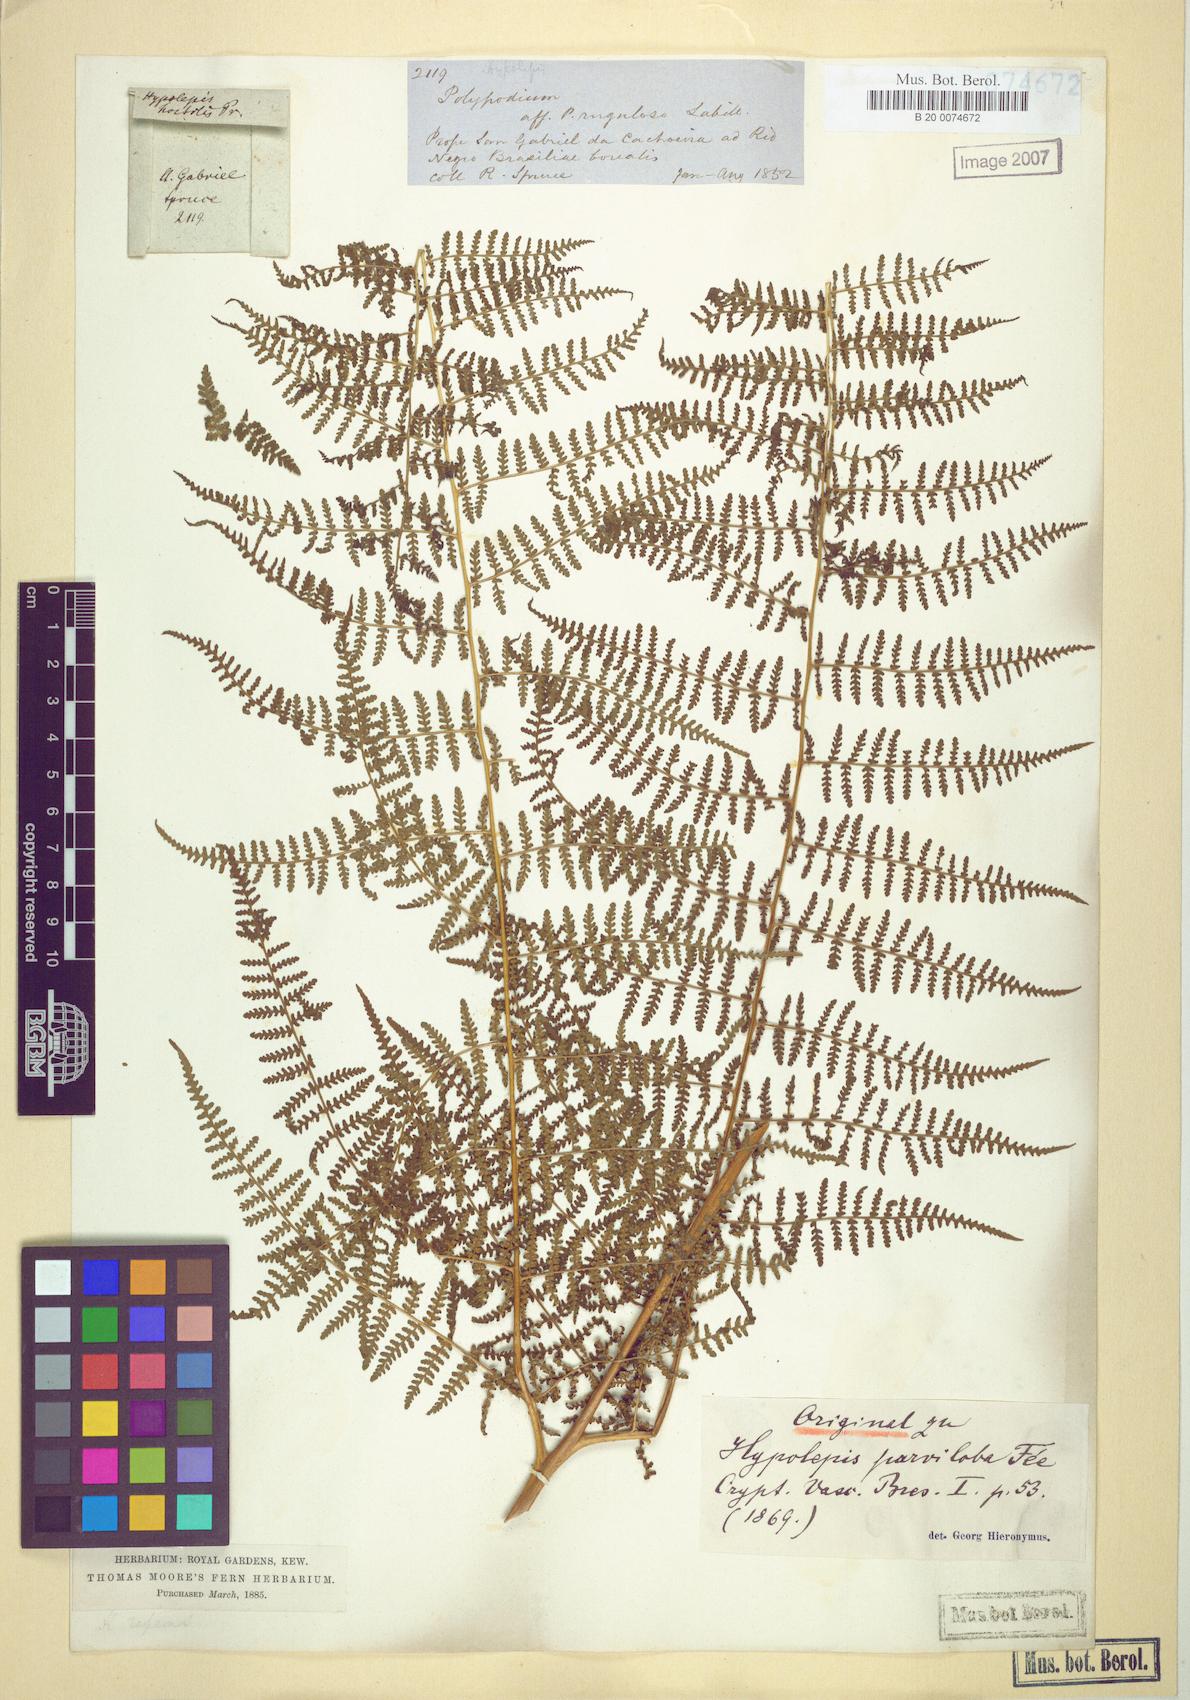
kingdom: Plantae
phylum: Tracheophyta
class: Polypodiopsida
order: Polypodiales
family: Dennstaedtiaceae
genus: Hypolepis
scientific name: Hypolepis hostilis
